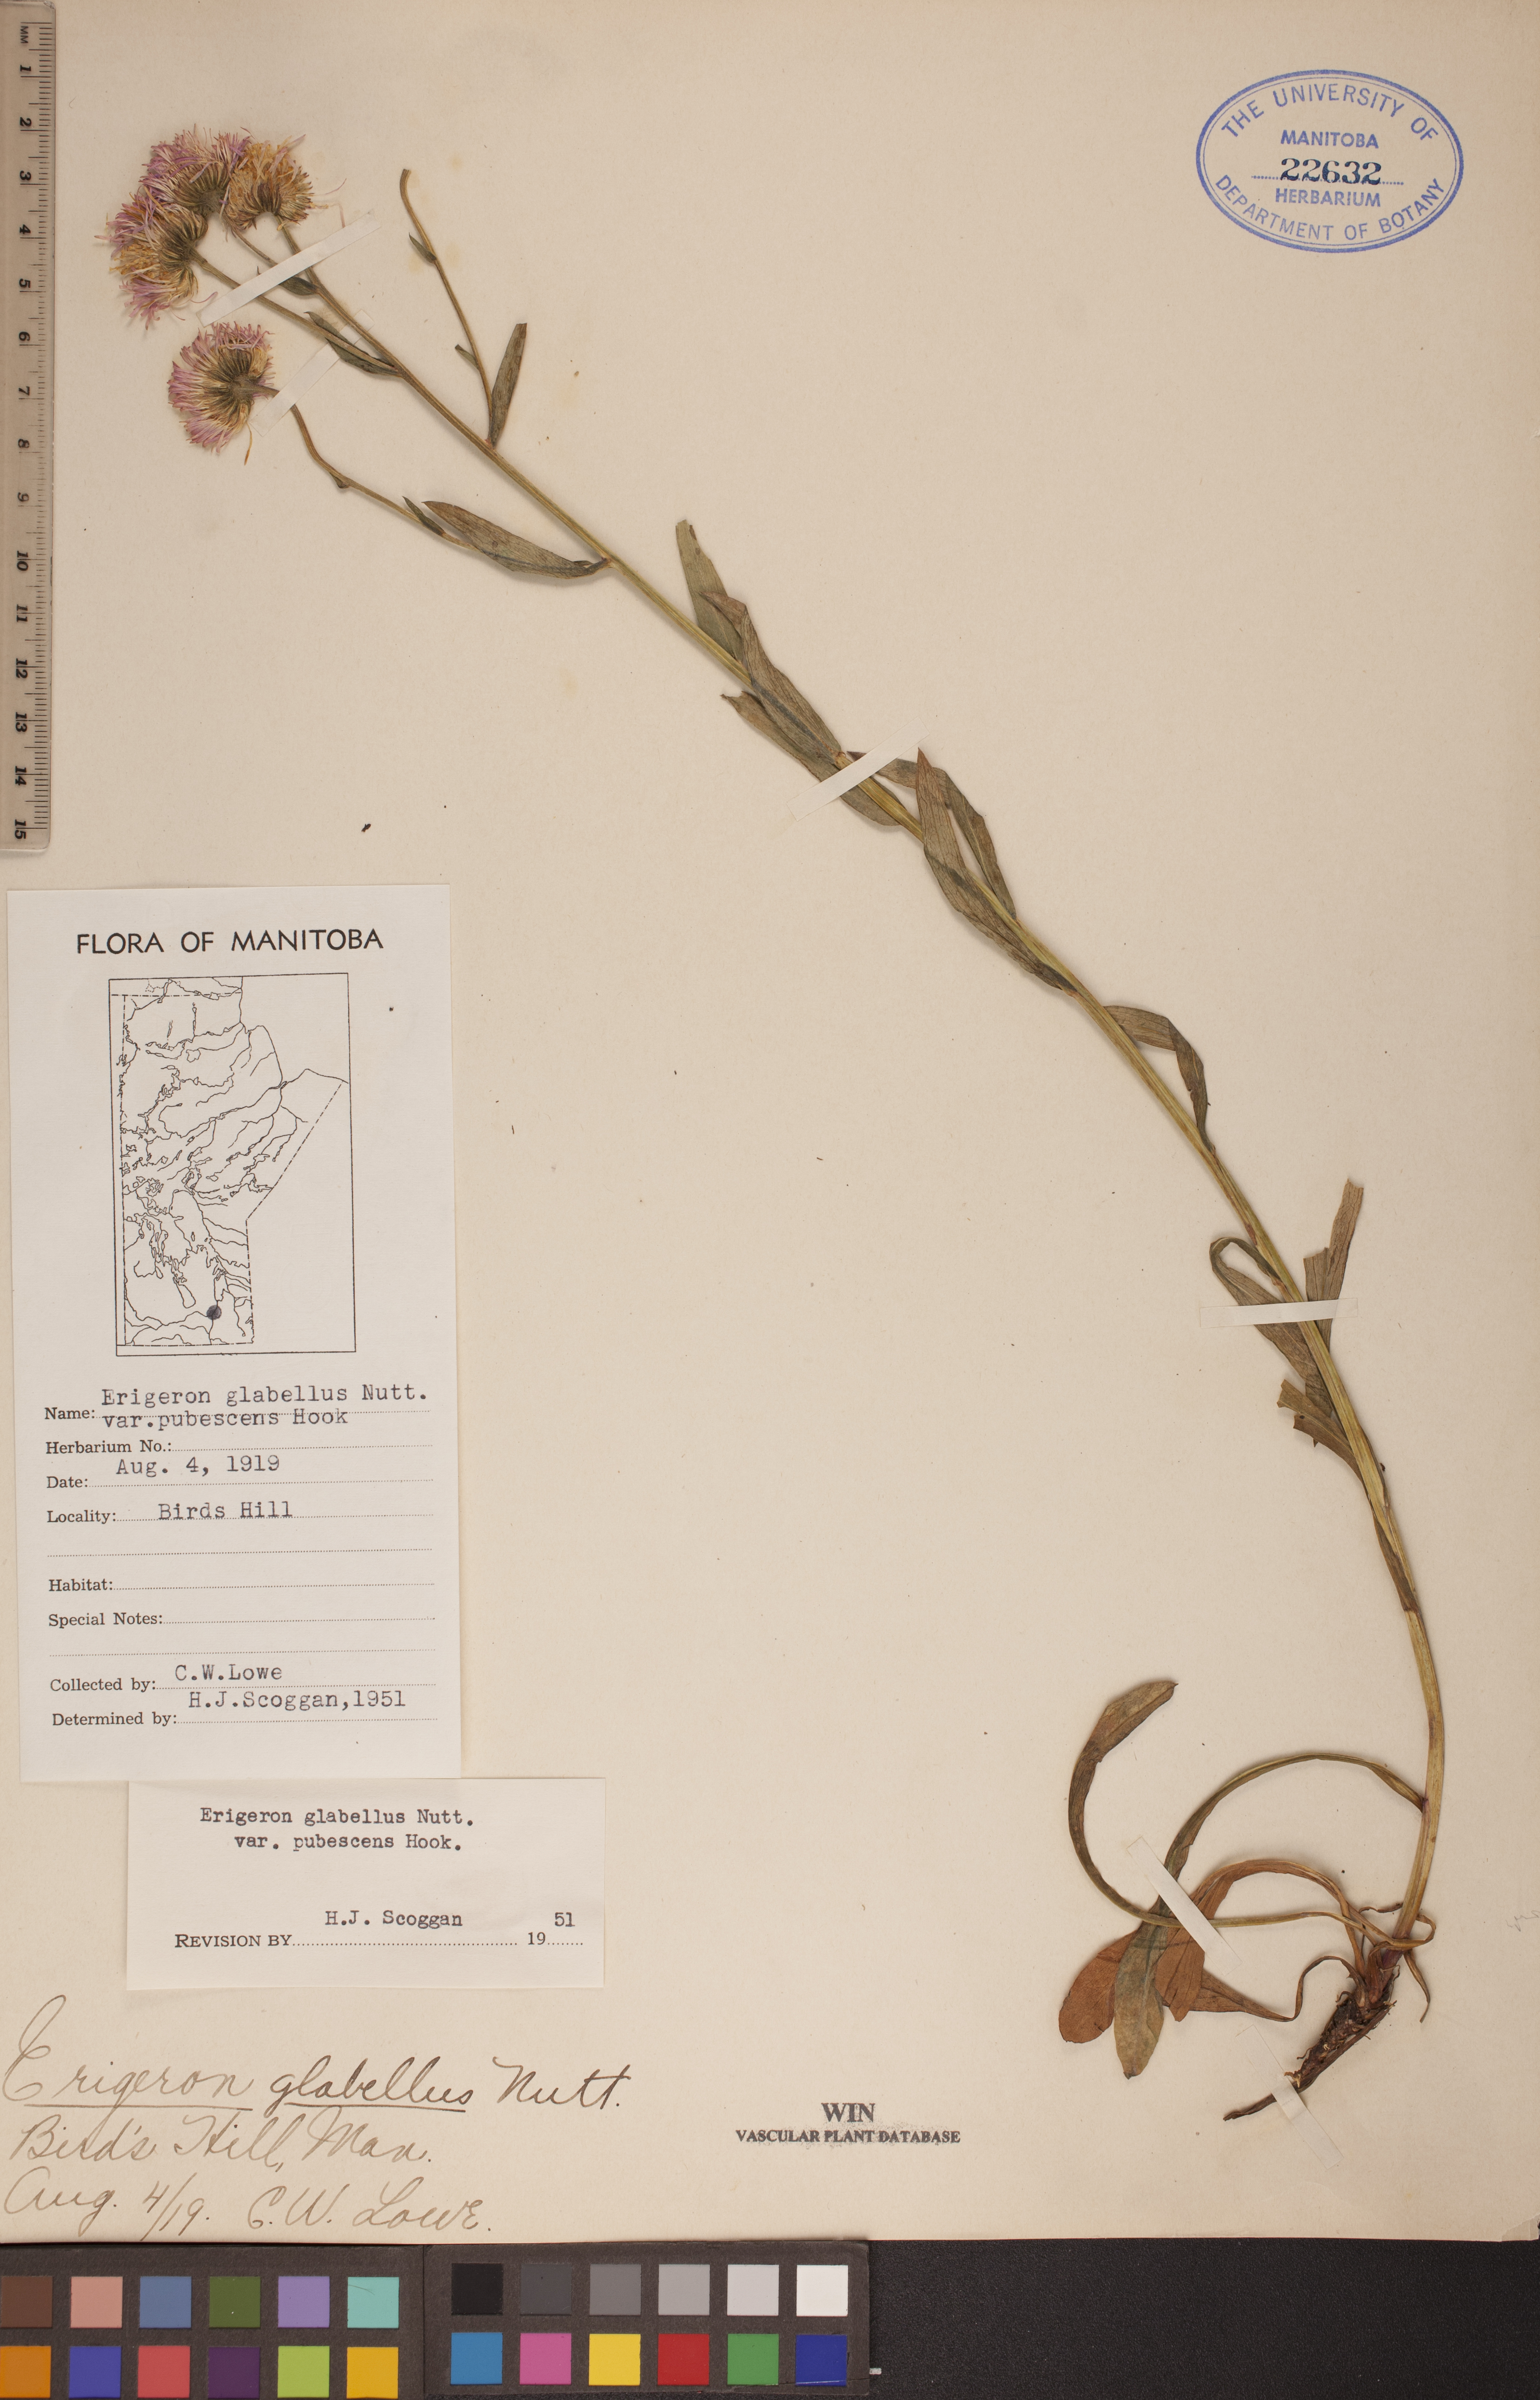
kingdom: Plantae
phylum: Tracheophyta
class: Magnoliopsida
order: Asterales
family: Asteraceae
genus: Erigeron
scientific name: Erigeron glabellus
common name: Smooth fleabane
